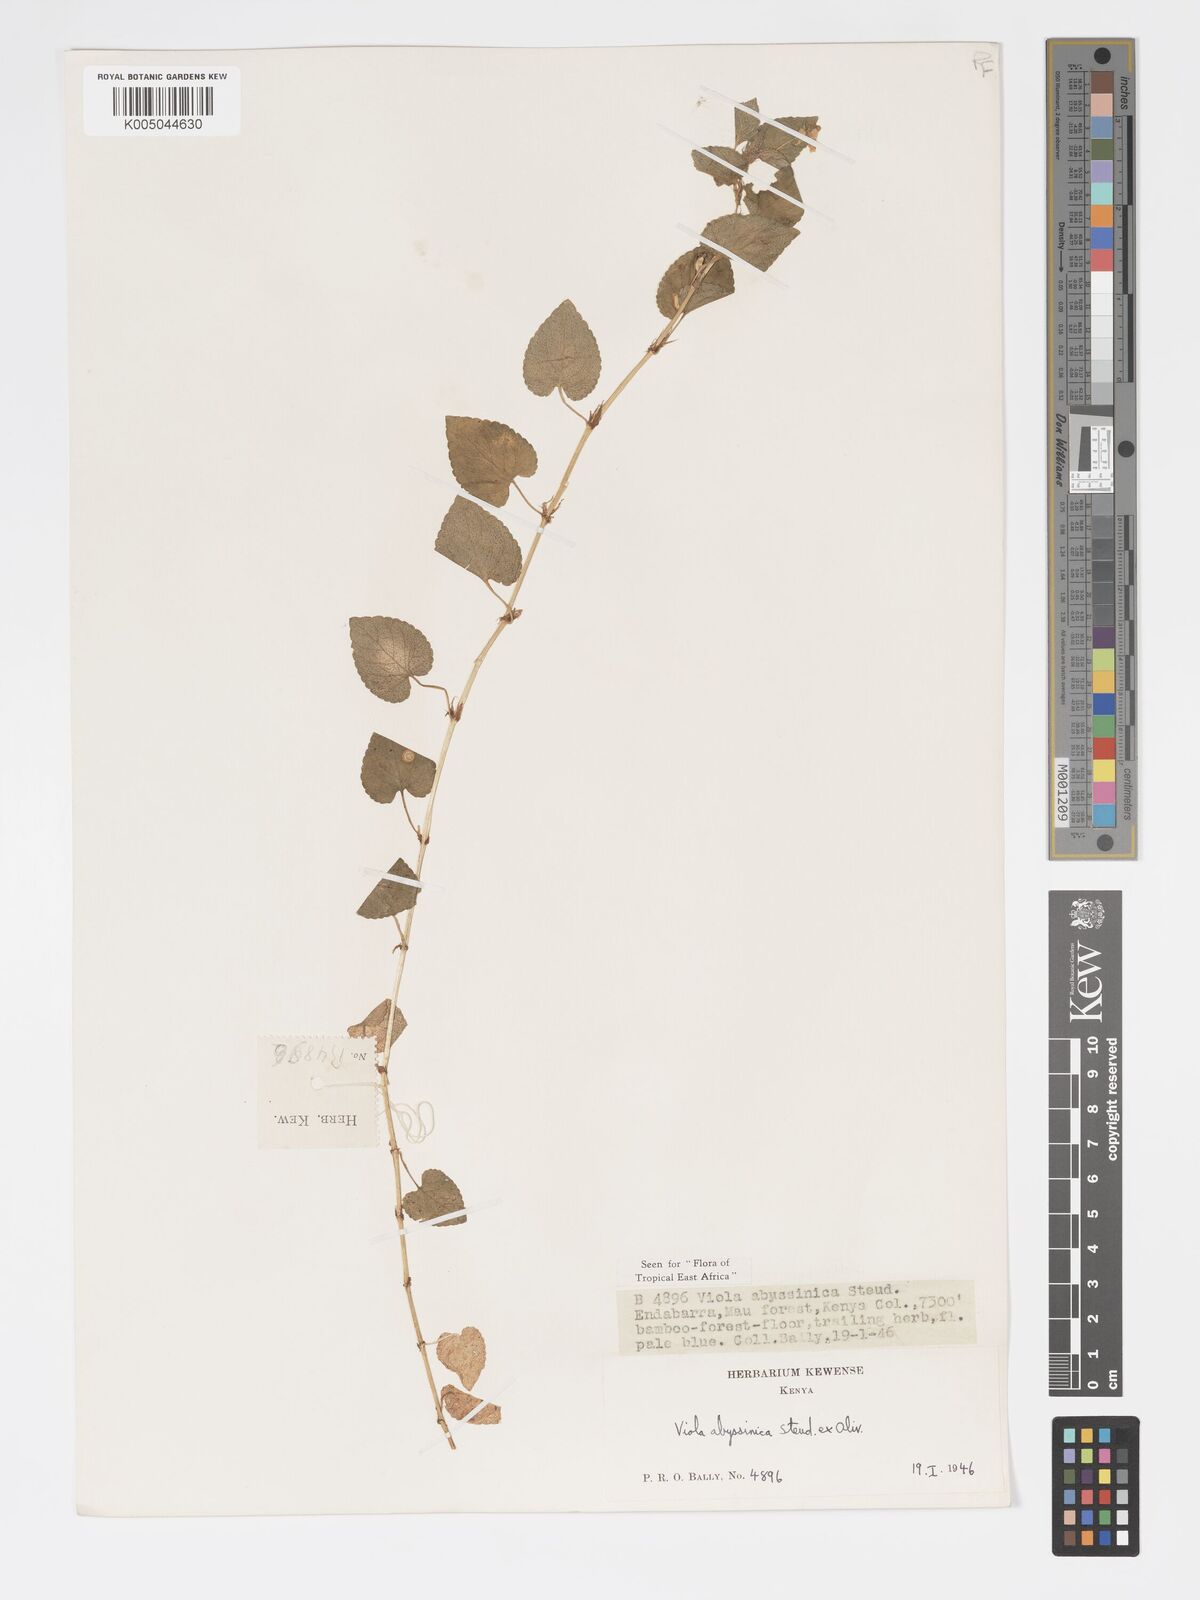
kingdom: Plantae
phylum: Tracheophyta
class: Magnoliopsida
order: Malpighiales
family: Violaceae
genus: Viola
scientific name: Viola abyssinica
